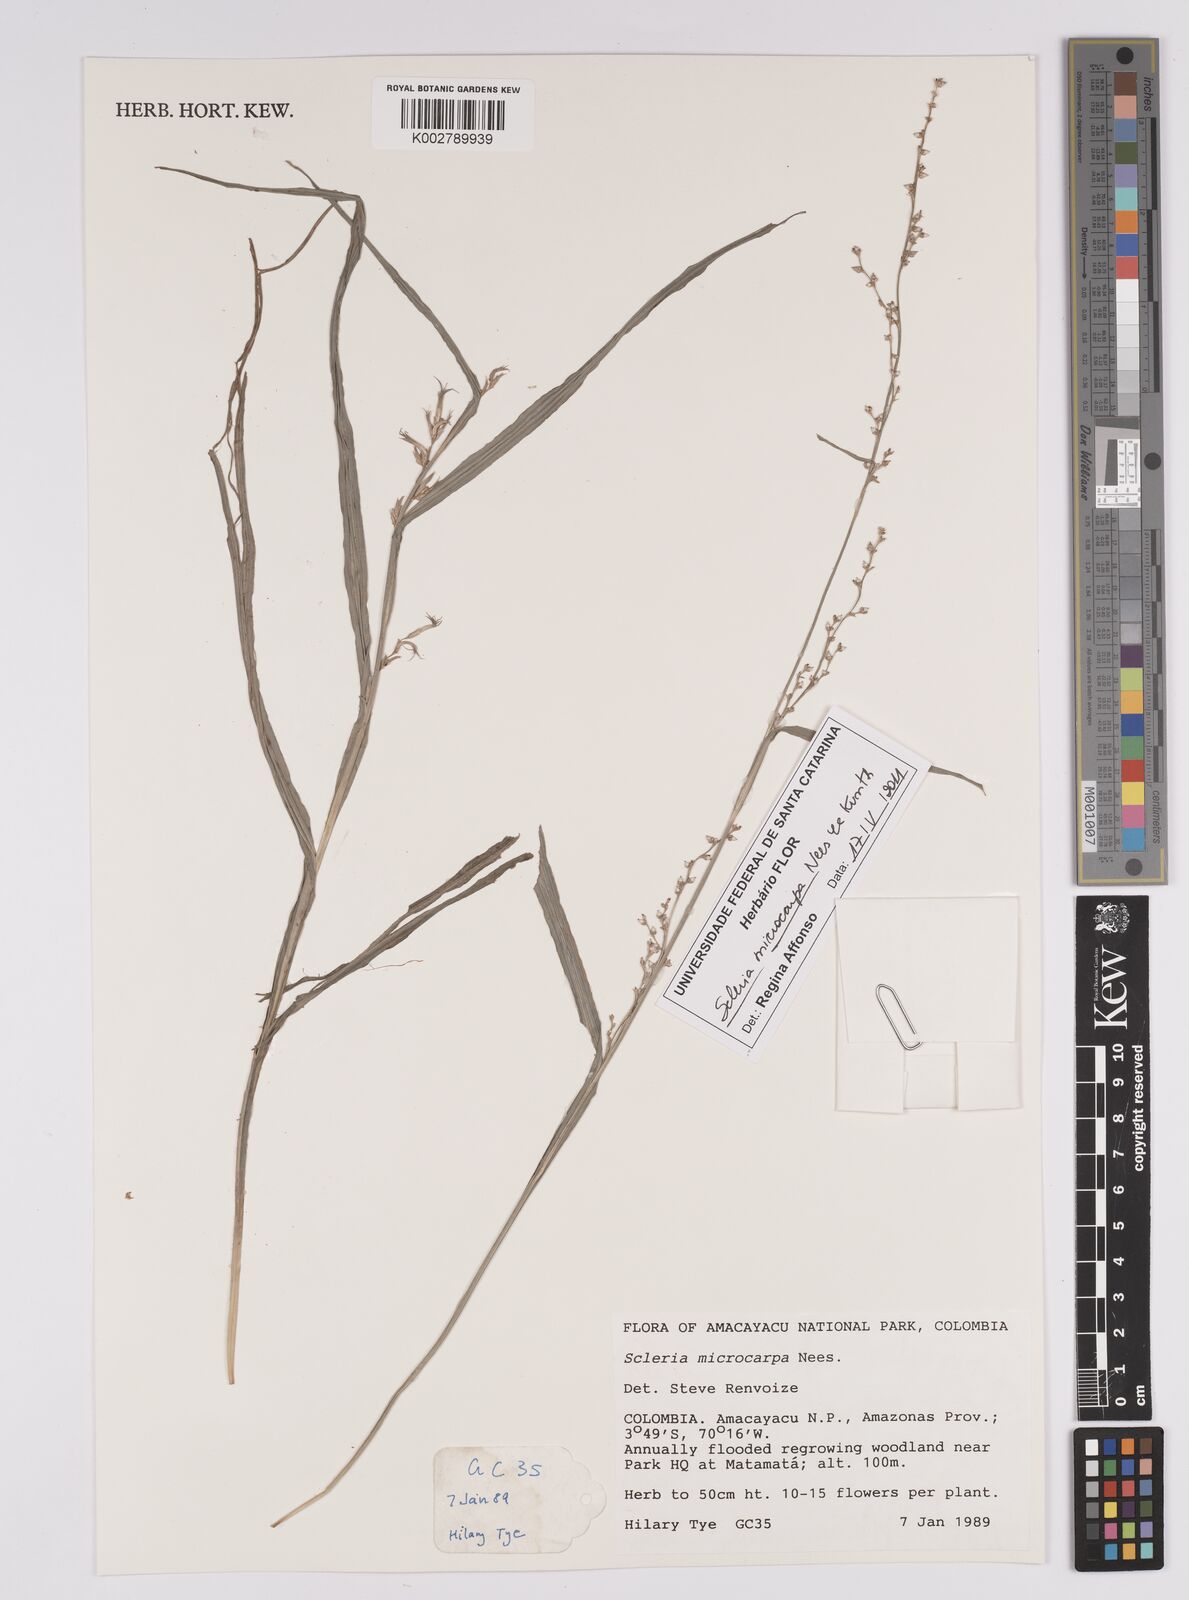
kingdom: Plantae
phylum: Tracheophyta
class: Liliopsida
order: Poales
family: Cyperaceae
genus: Scleria
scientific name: Scleria microcarpa
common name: Tropical nutrush
